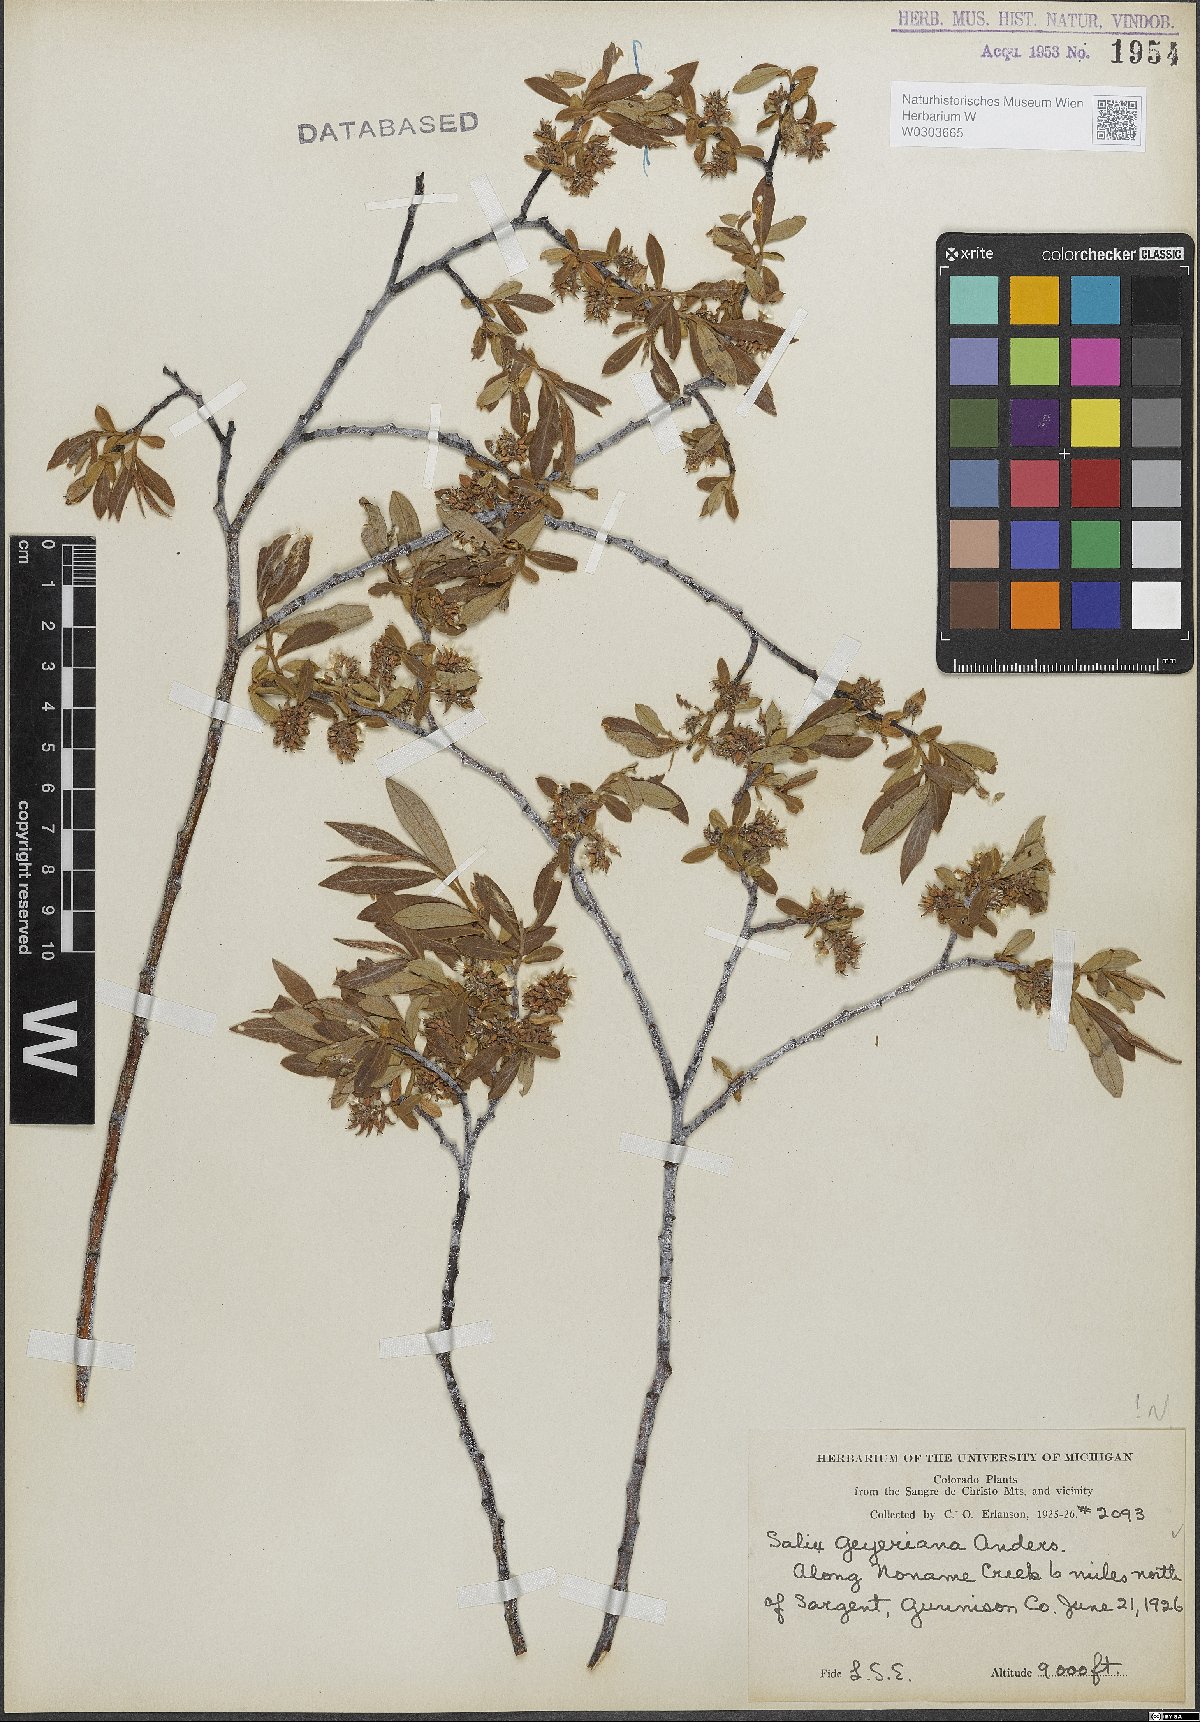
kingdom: Plantae
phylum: Tracheophyta
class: Magnoliopsida
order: Malpighiales
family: Salicaceae
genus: Salix
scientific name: Salix geyeriana
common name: Geyer's willow
